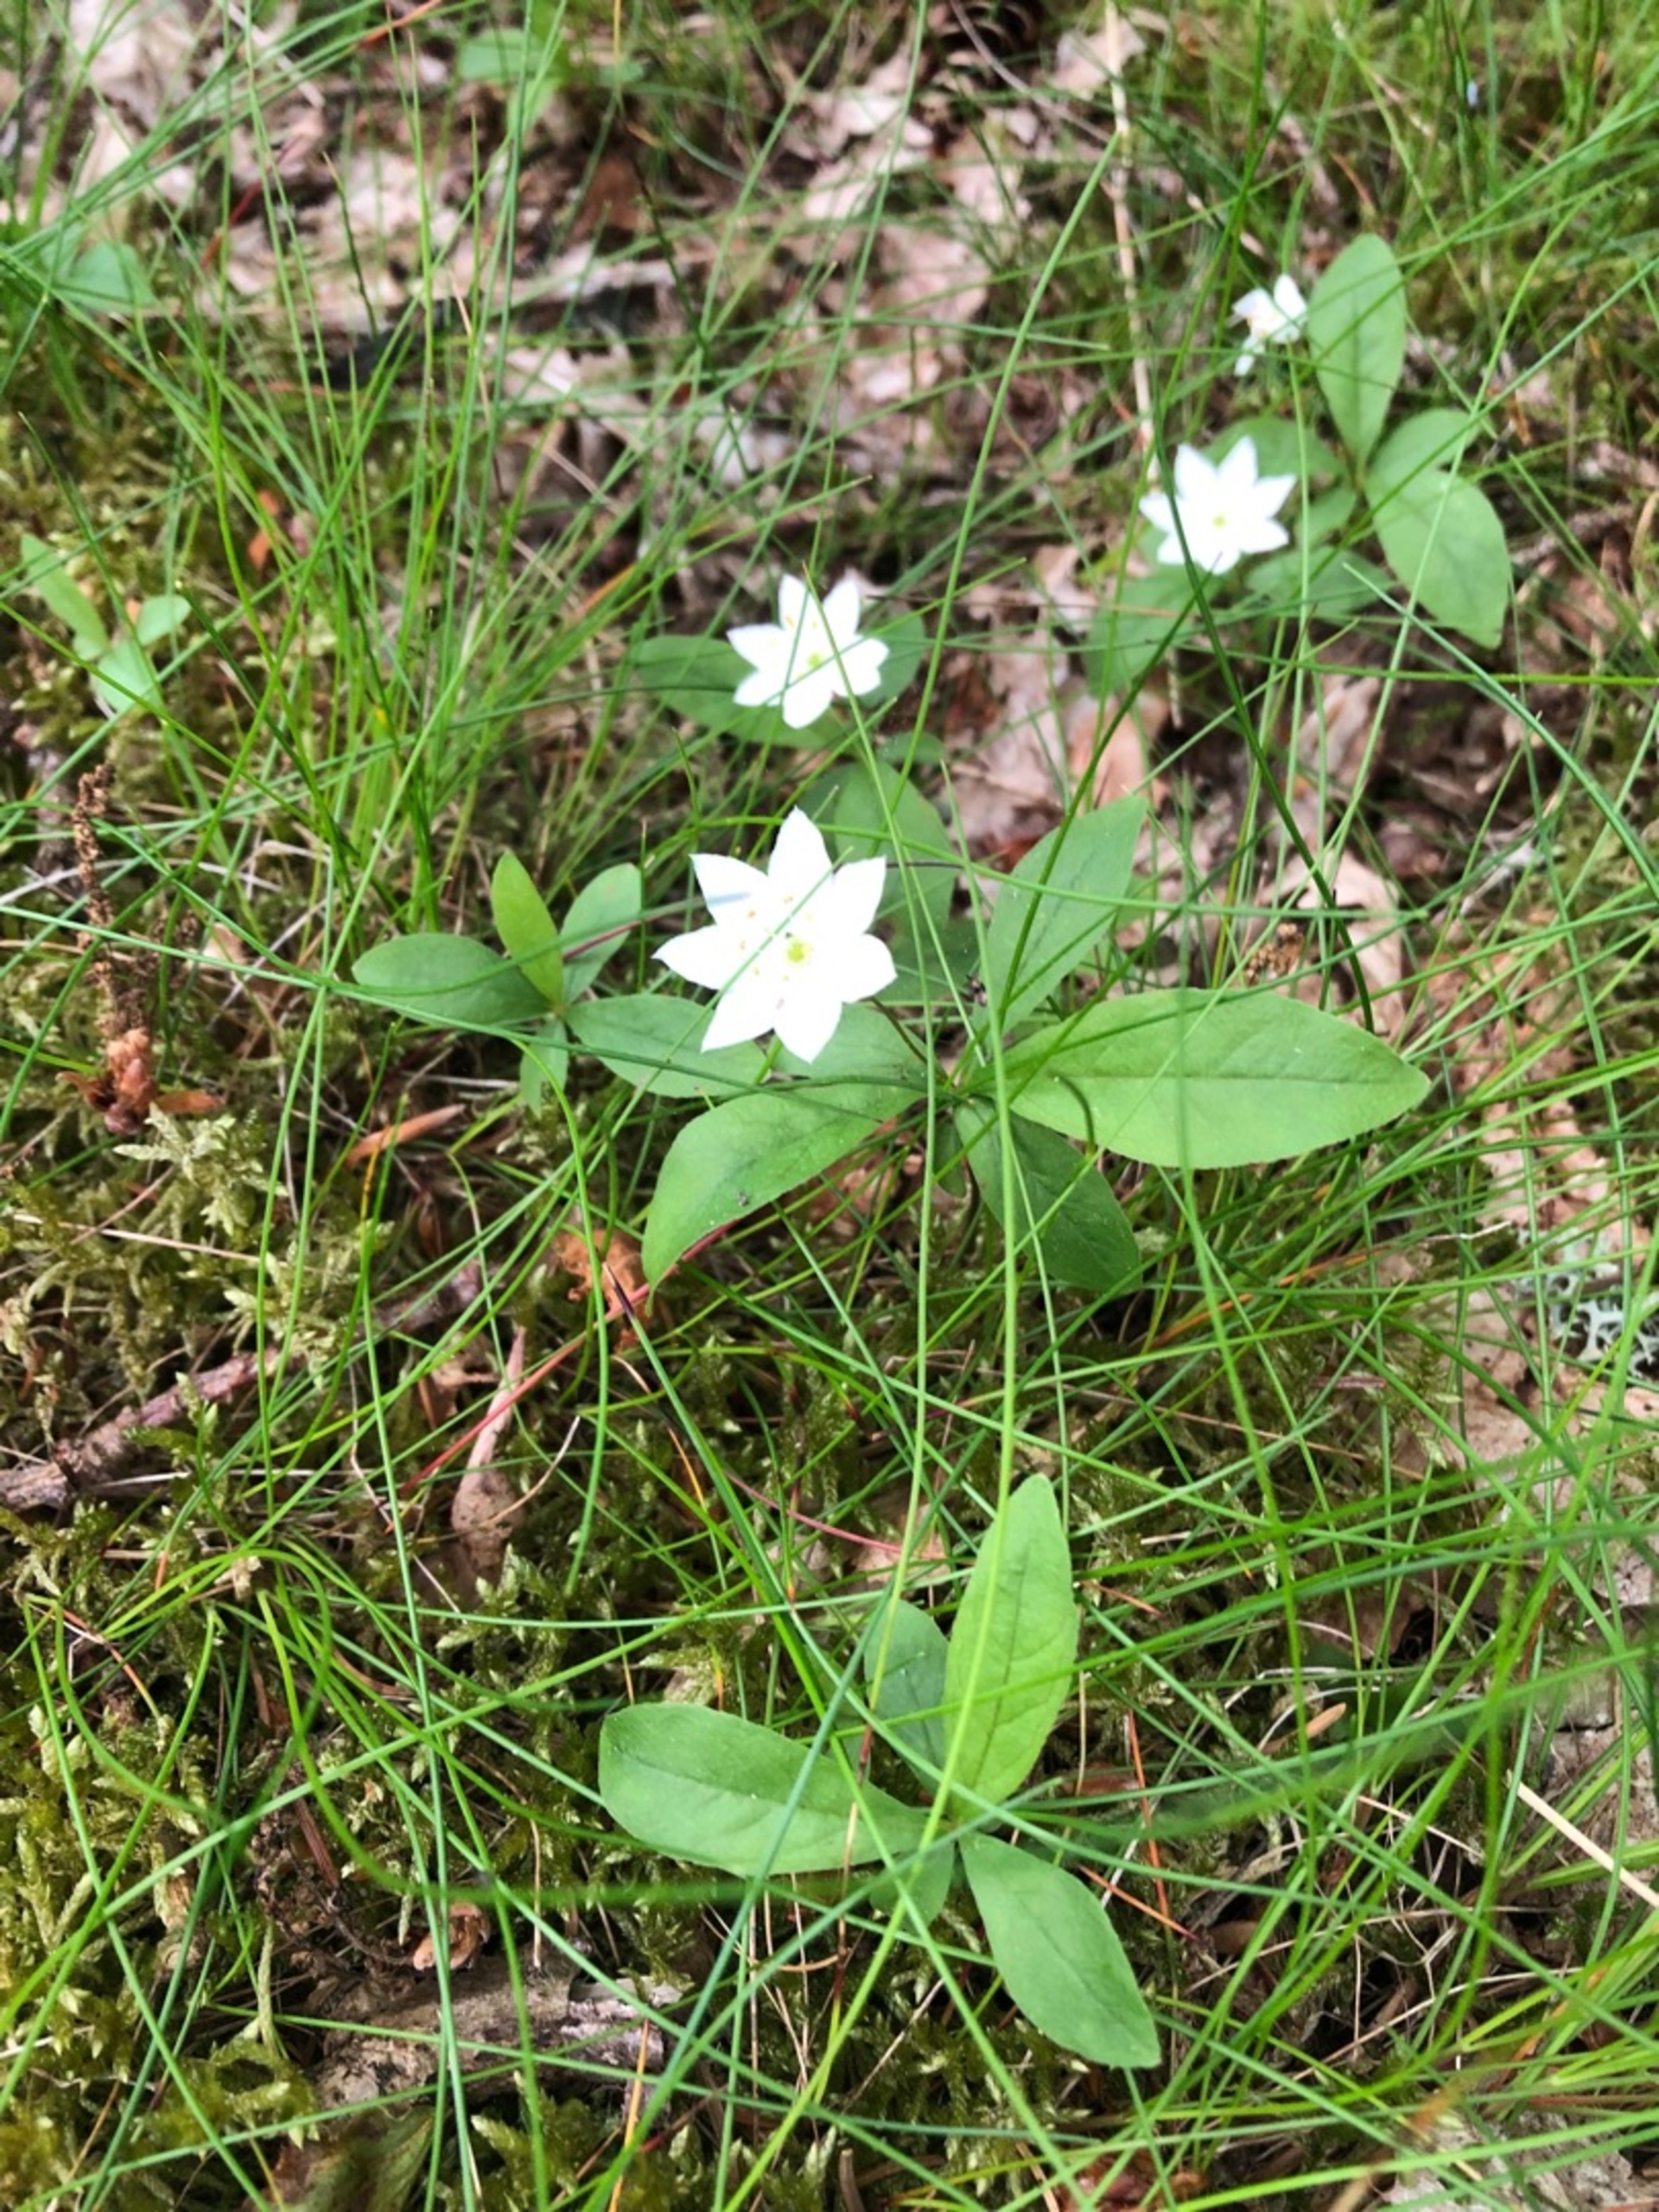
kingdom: Plantae
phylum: Tracheophyta
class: Magnoliopsida
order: Ericales
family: Primulaceae
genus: Lysimachia
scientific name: Lysimachia europaea
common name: Skovstjerne
